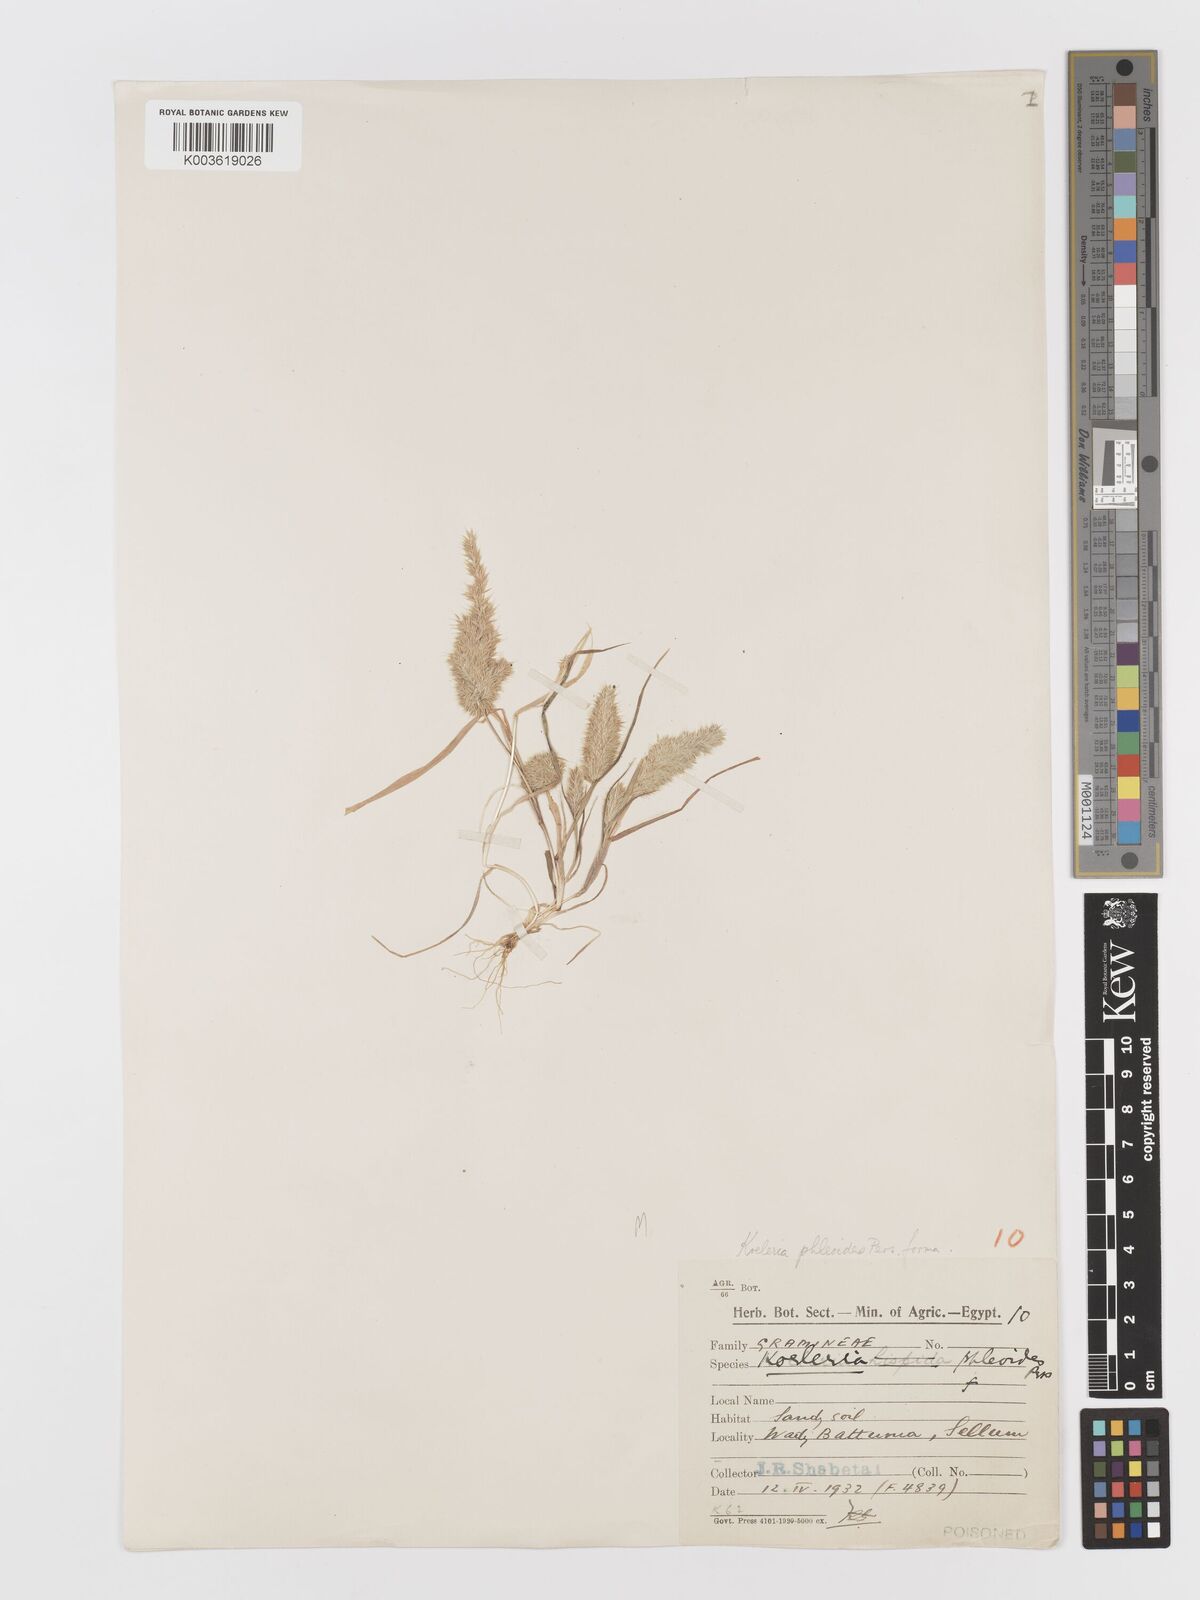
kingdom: Plantae
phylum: Tracheophyta
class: Liliopsida
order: Poales
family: Poaceae
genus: Rostraria
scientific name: Rostraria cristata
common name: Mediterranean hair-grass
